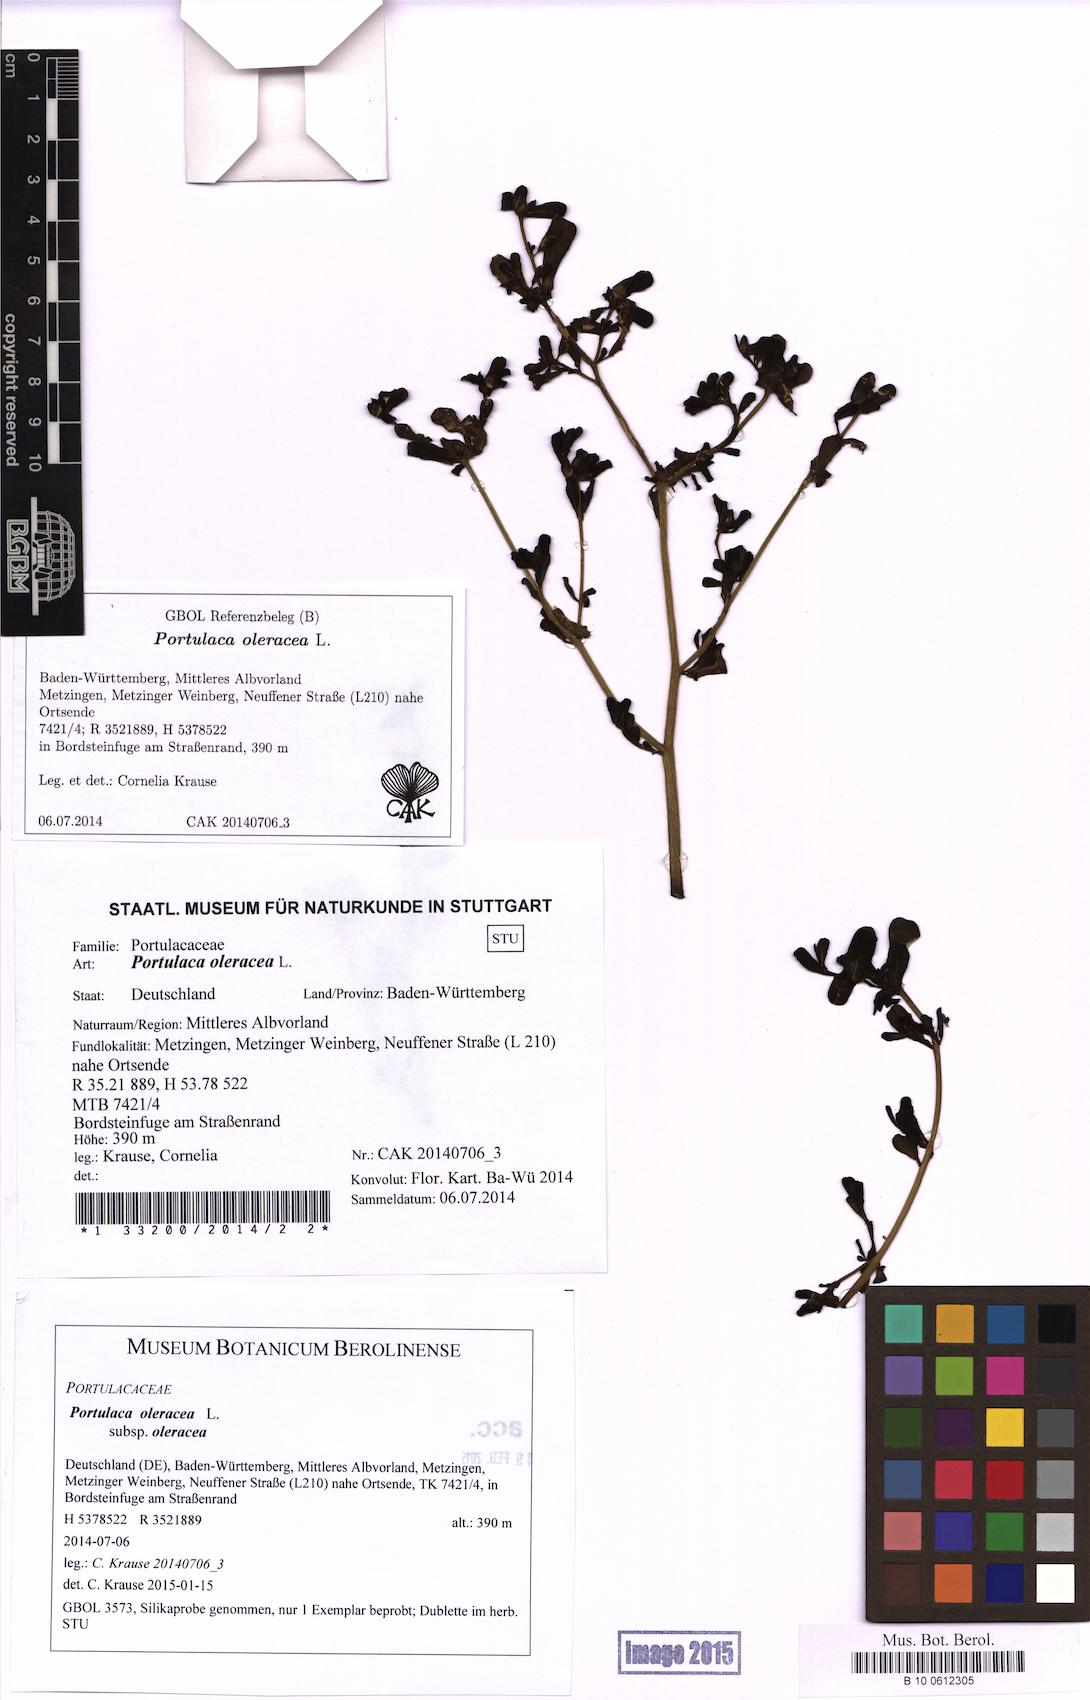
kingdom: Plantae
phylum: Tracheophyta
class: Magnoliopsida
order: Caryophyllales
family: Portulacaceae
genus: Portulaca
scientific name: Portulaca oleracea
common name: Common purslane
